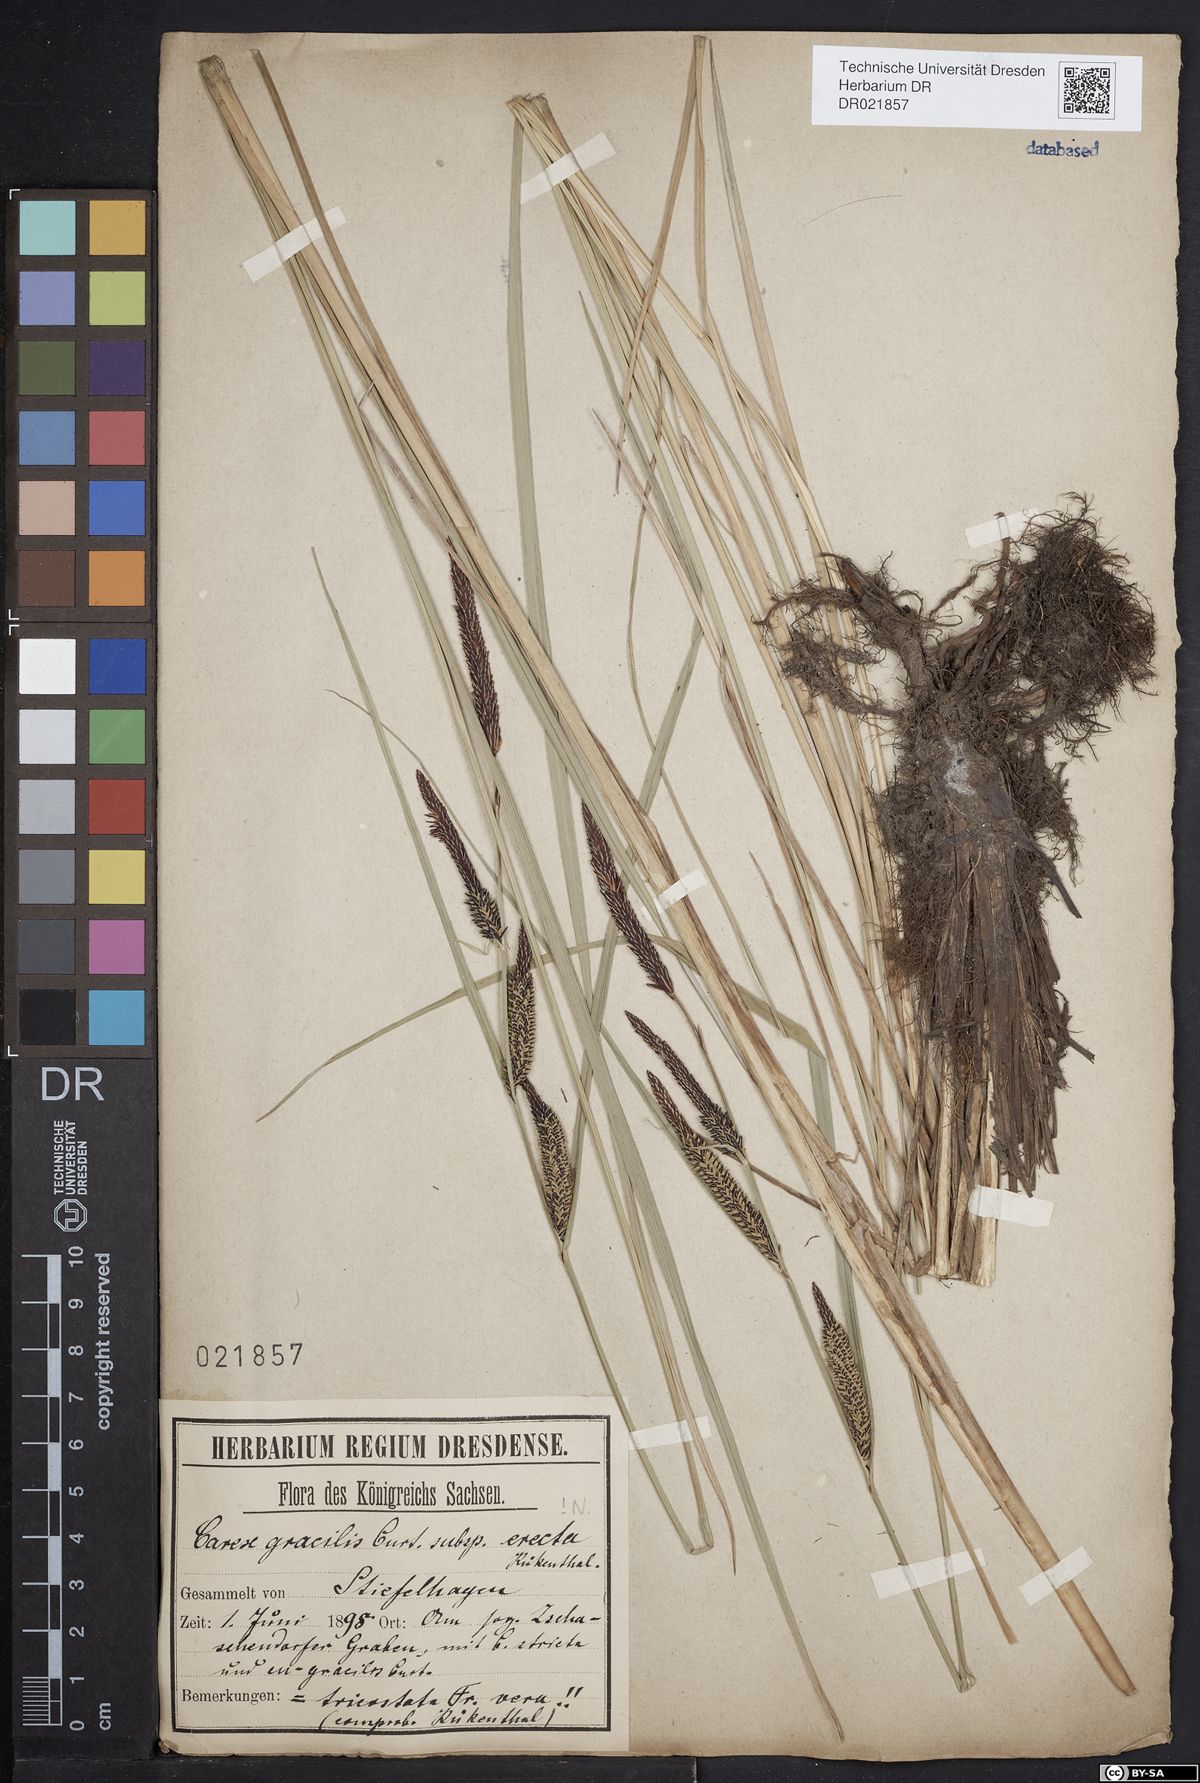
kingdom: Plantae
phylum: Tracheophyta
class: Liliopsida
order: Poales
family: Cyperaceae
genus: Carex
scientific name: Carex acuta
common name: Slender tufted-sedge
